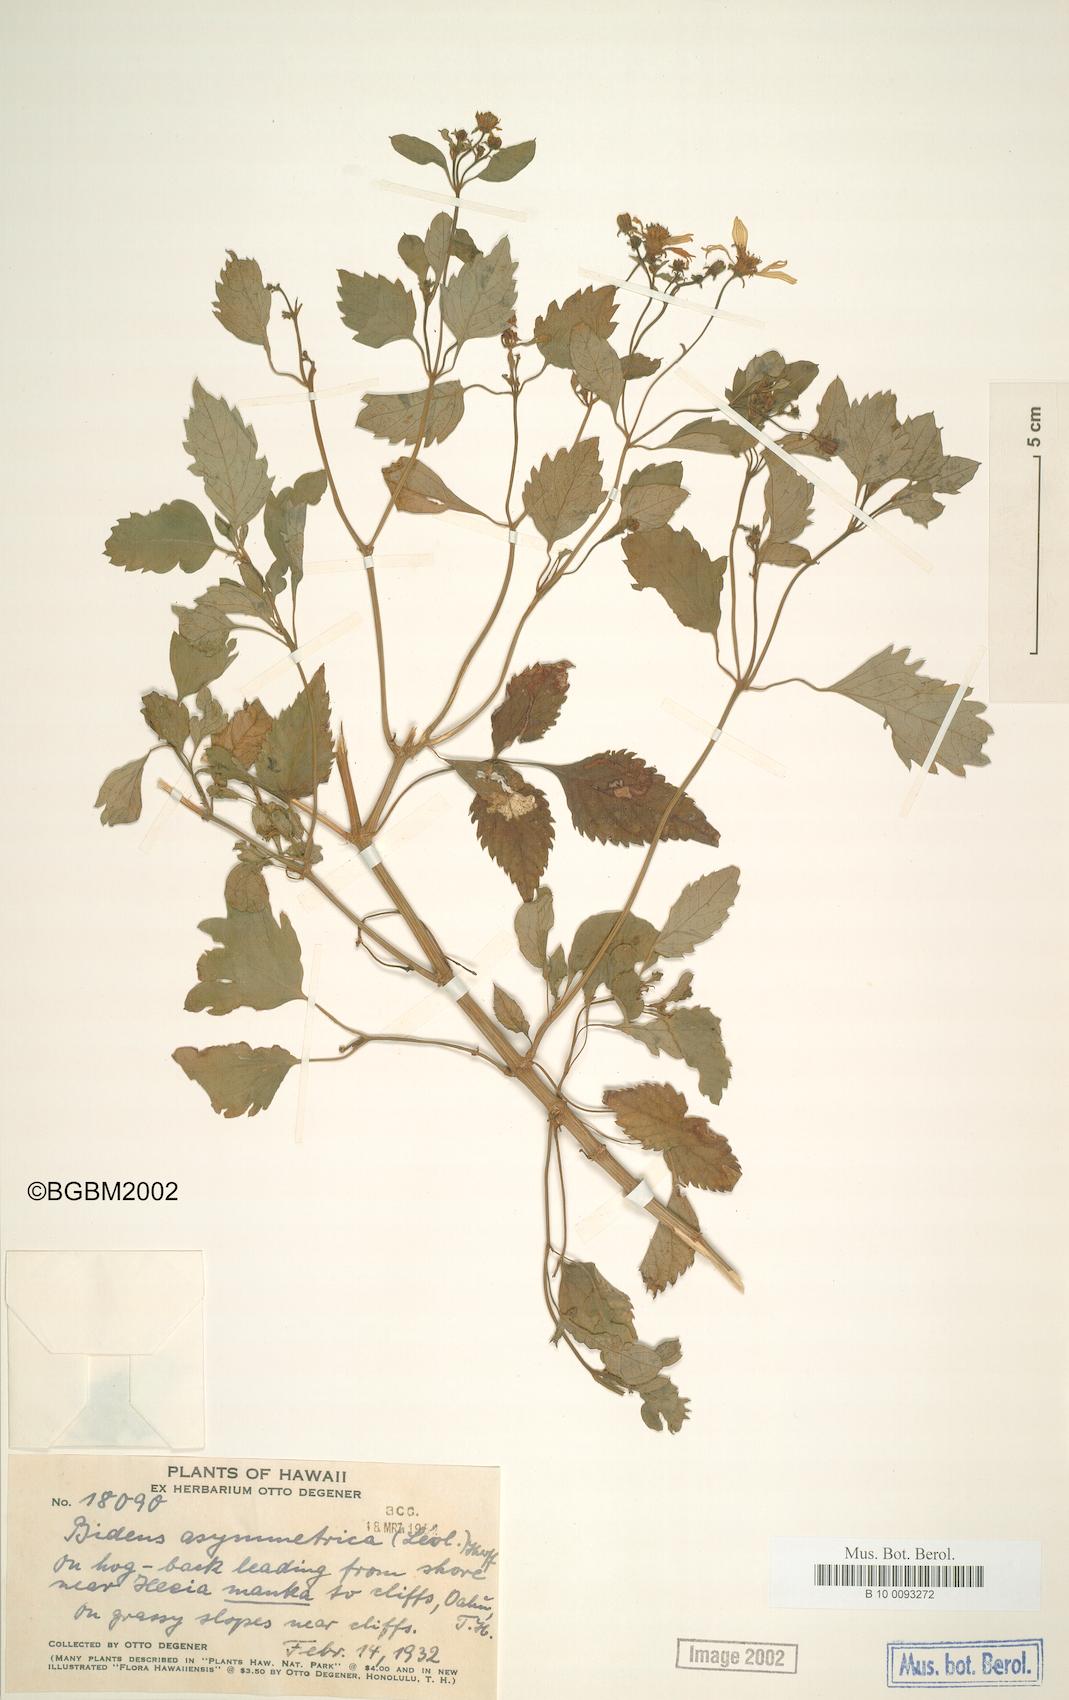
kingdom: Plantae
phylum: Tracheophyta
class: Magnoliopsida
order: Asterales
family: Asteraceae
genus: Bidens
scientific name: Bidens asymmetrica
